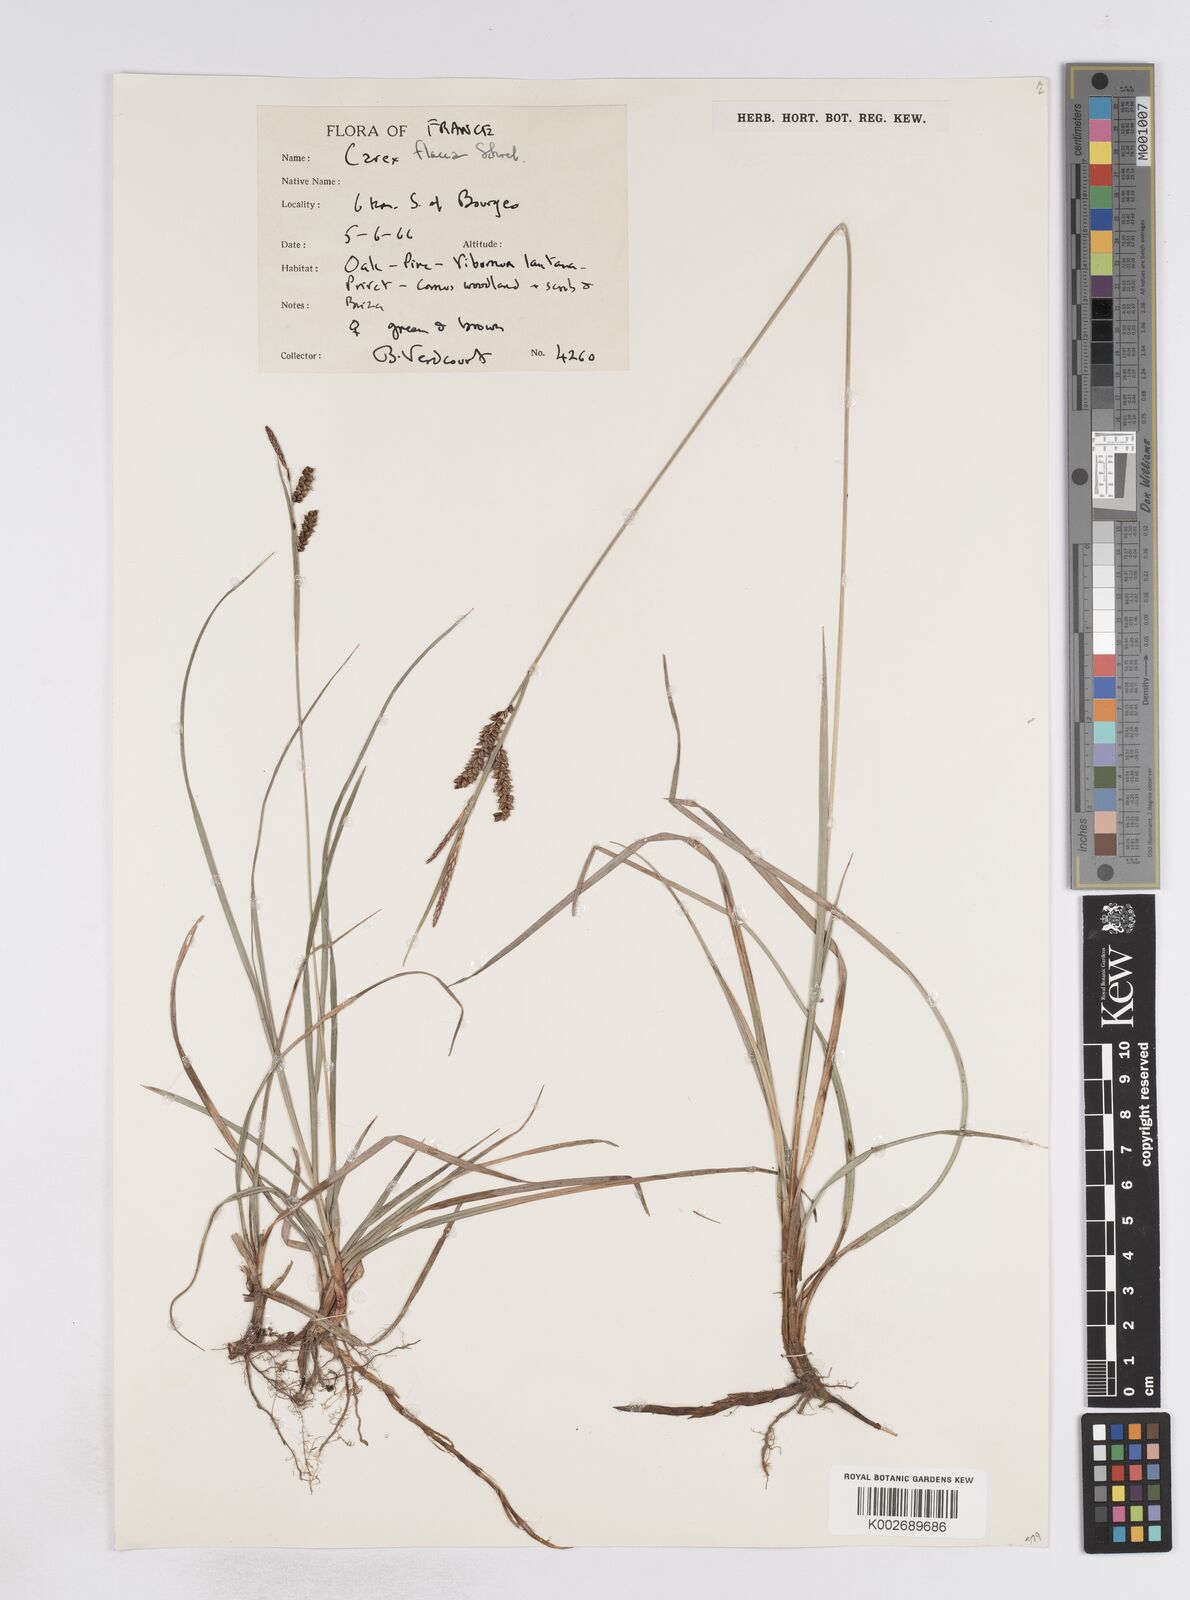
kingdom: Plantae
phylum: Tracheophyta
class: Liliopsida
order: Poales
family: Cyperaceae
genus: Carex
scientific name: Carex flacca
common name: Glaucous sedge
